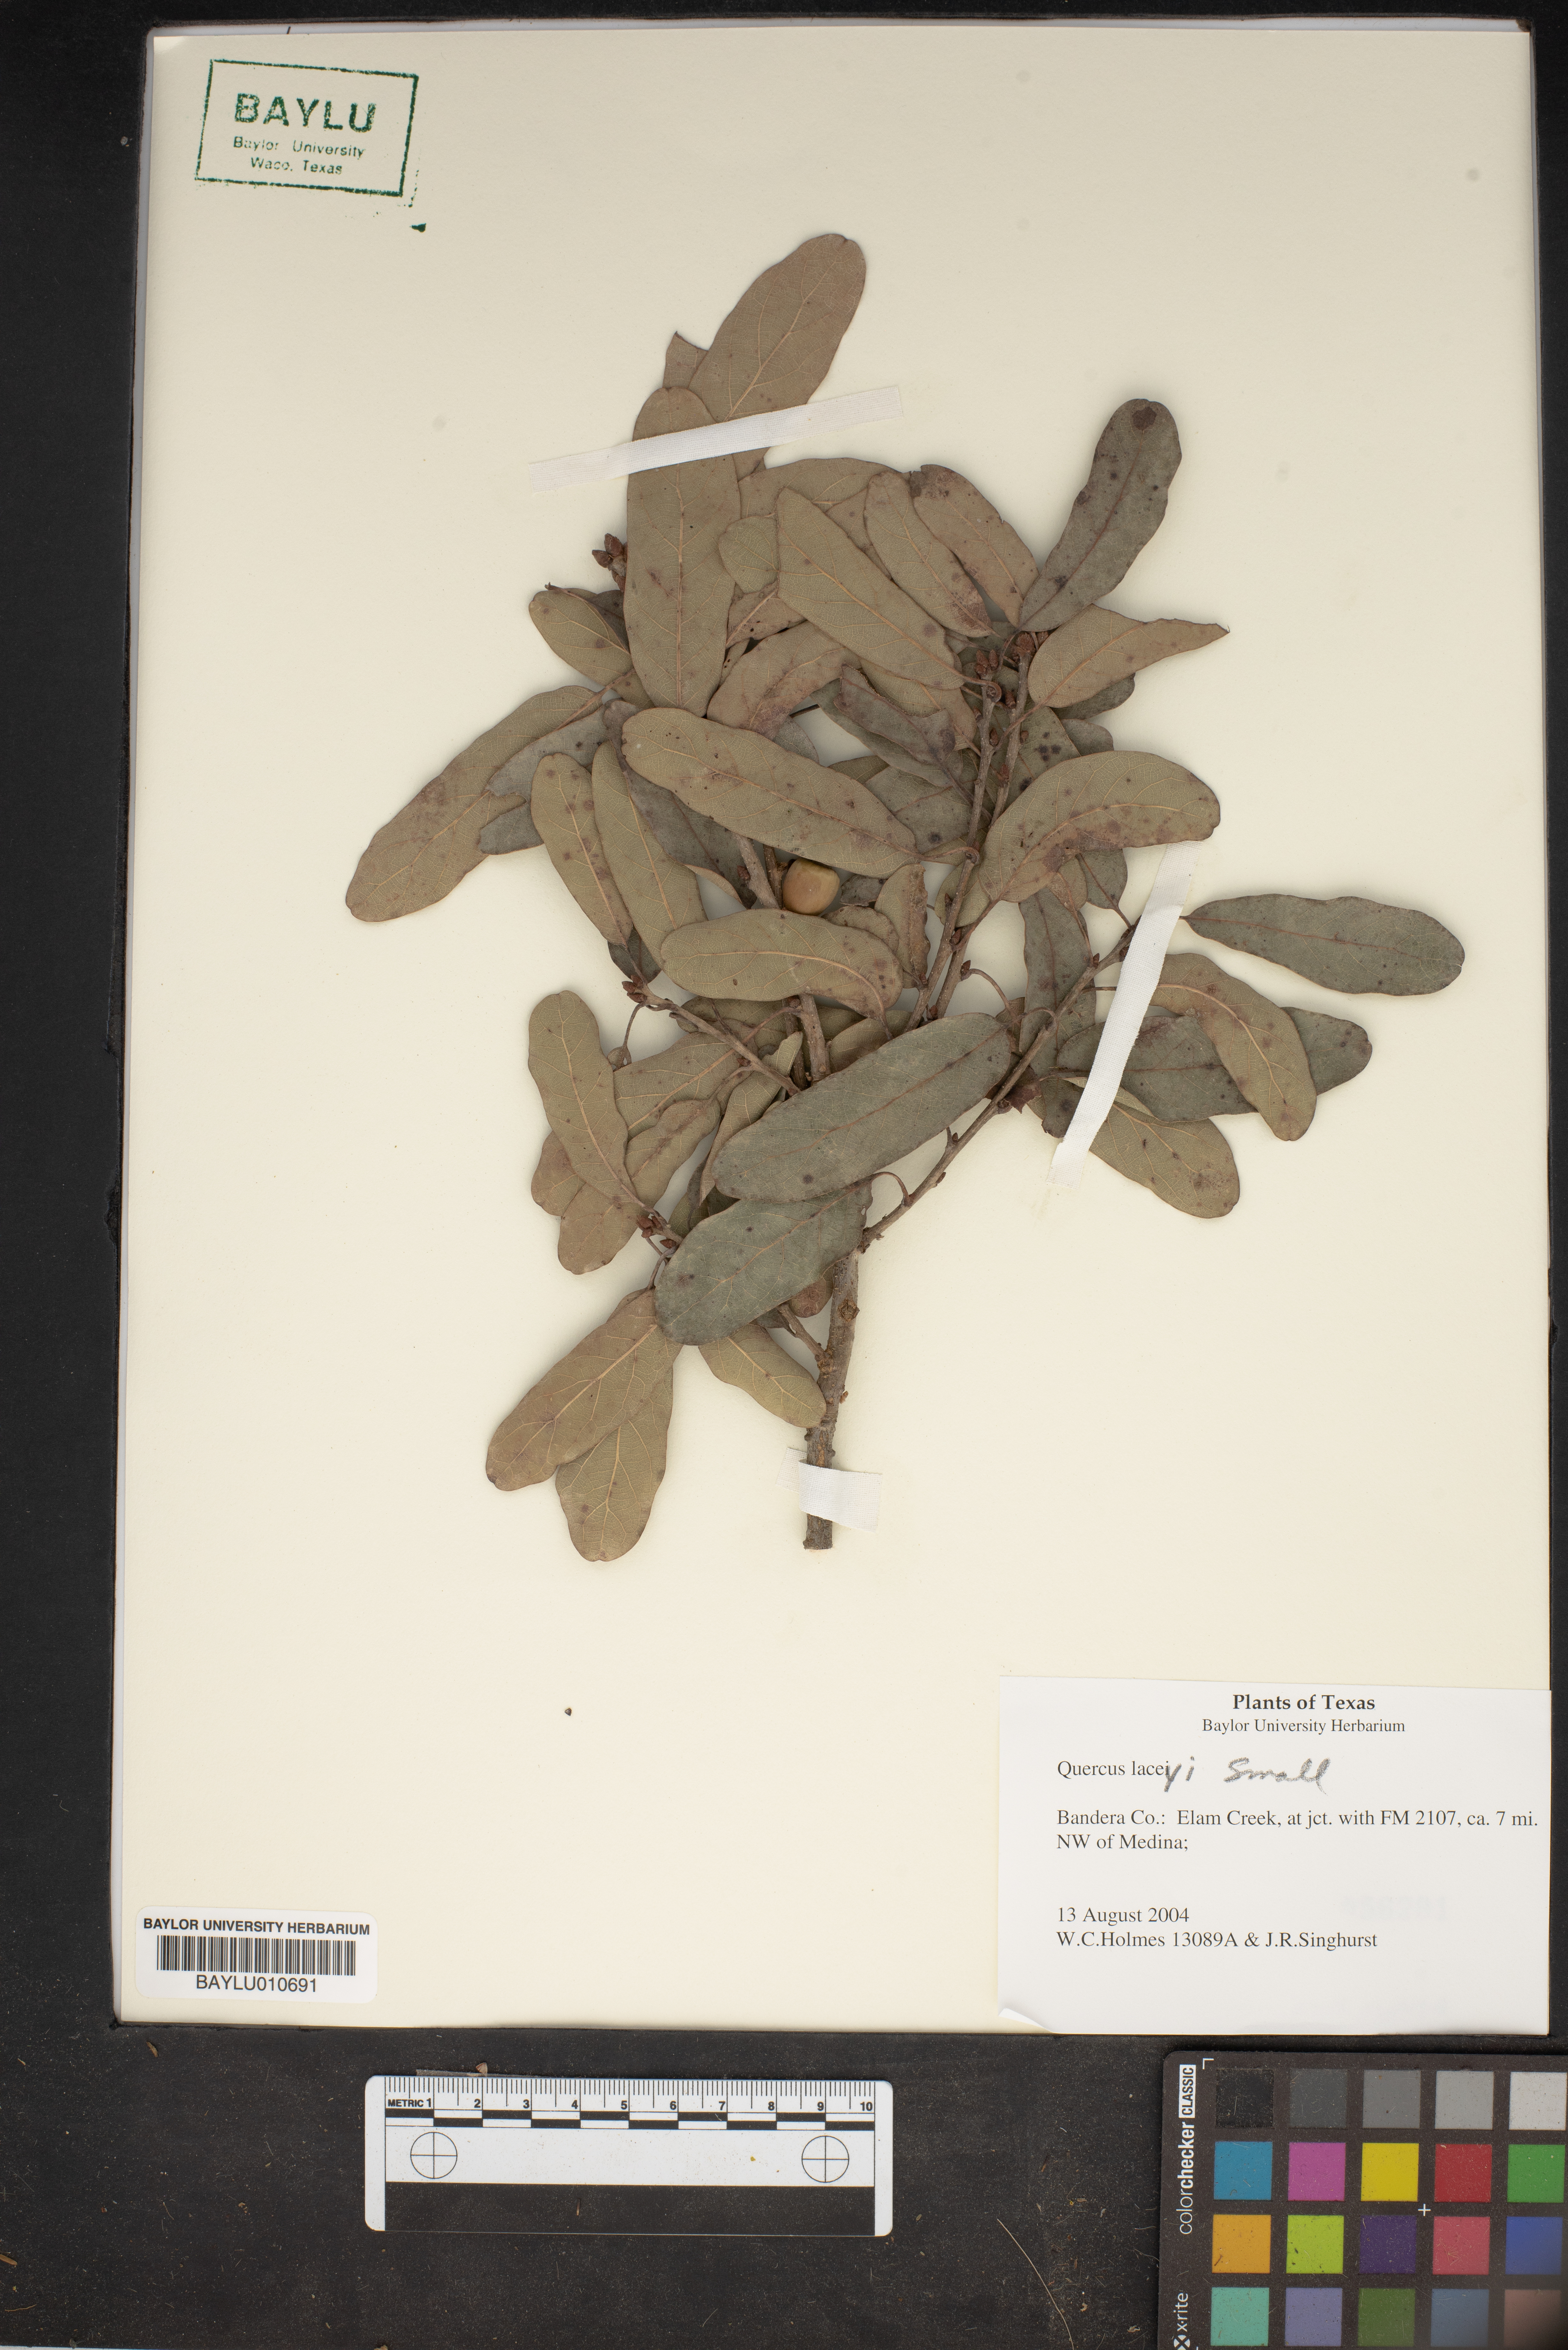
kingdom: Plantae
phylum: Tracheophyta
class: Magnoliopsida
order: Fagales
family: Fagaceae
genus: Quercus
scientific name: Quercus laceyi
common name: Lacey oak
